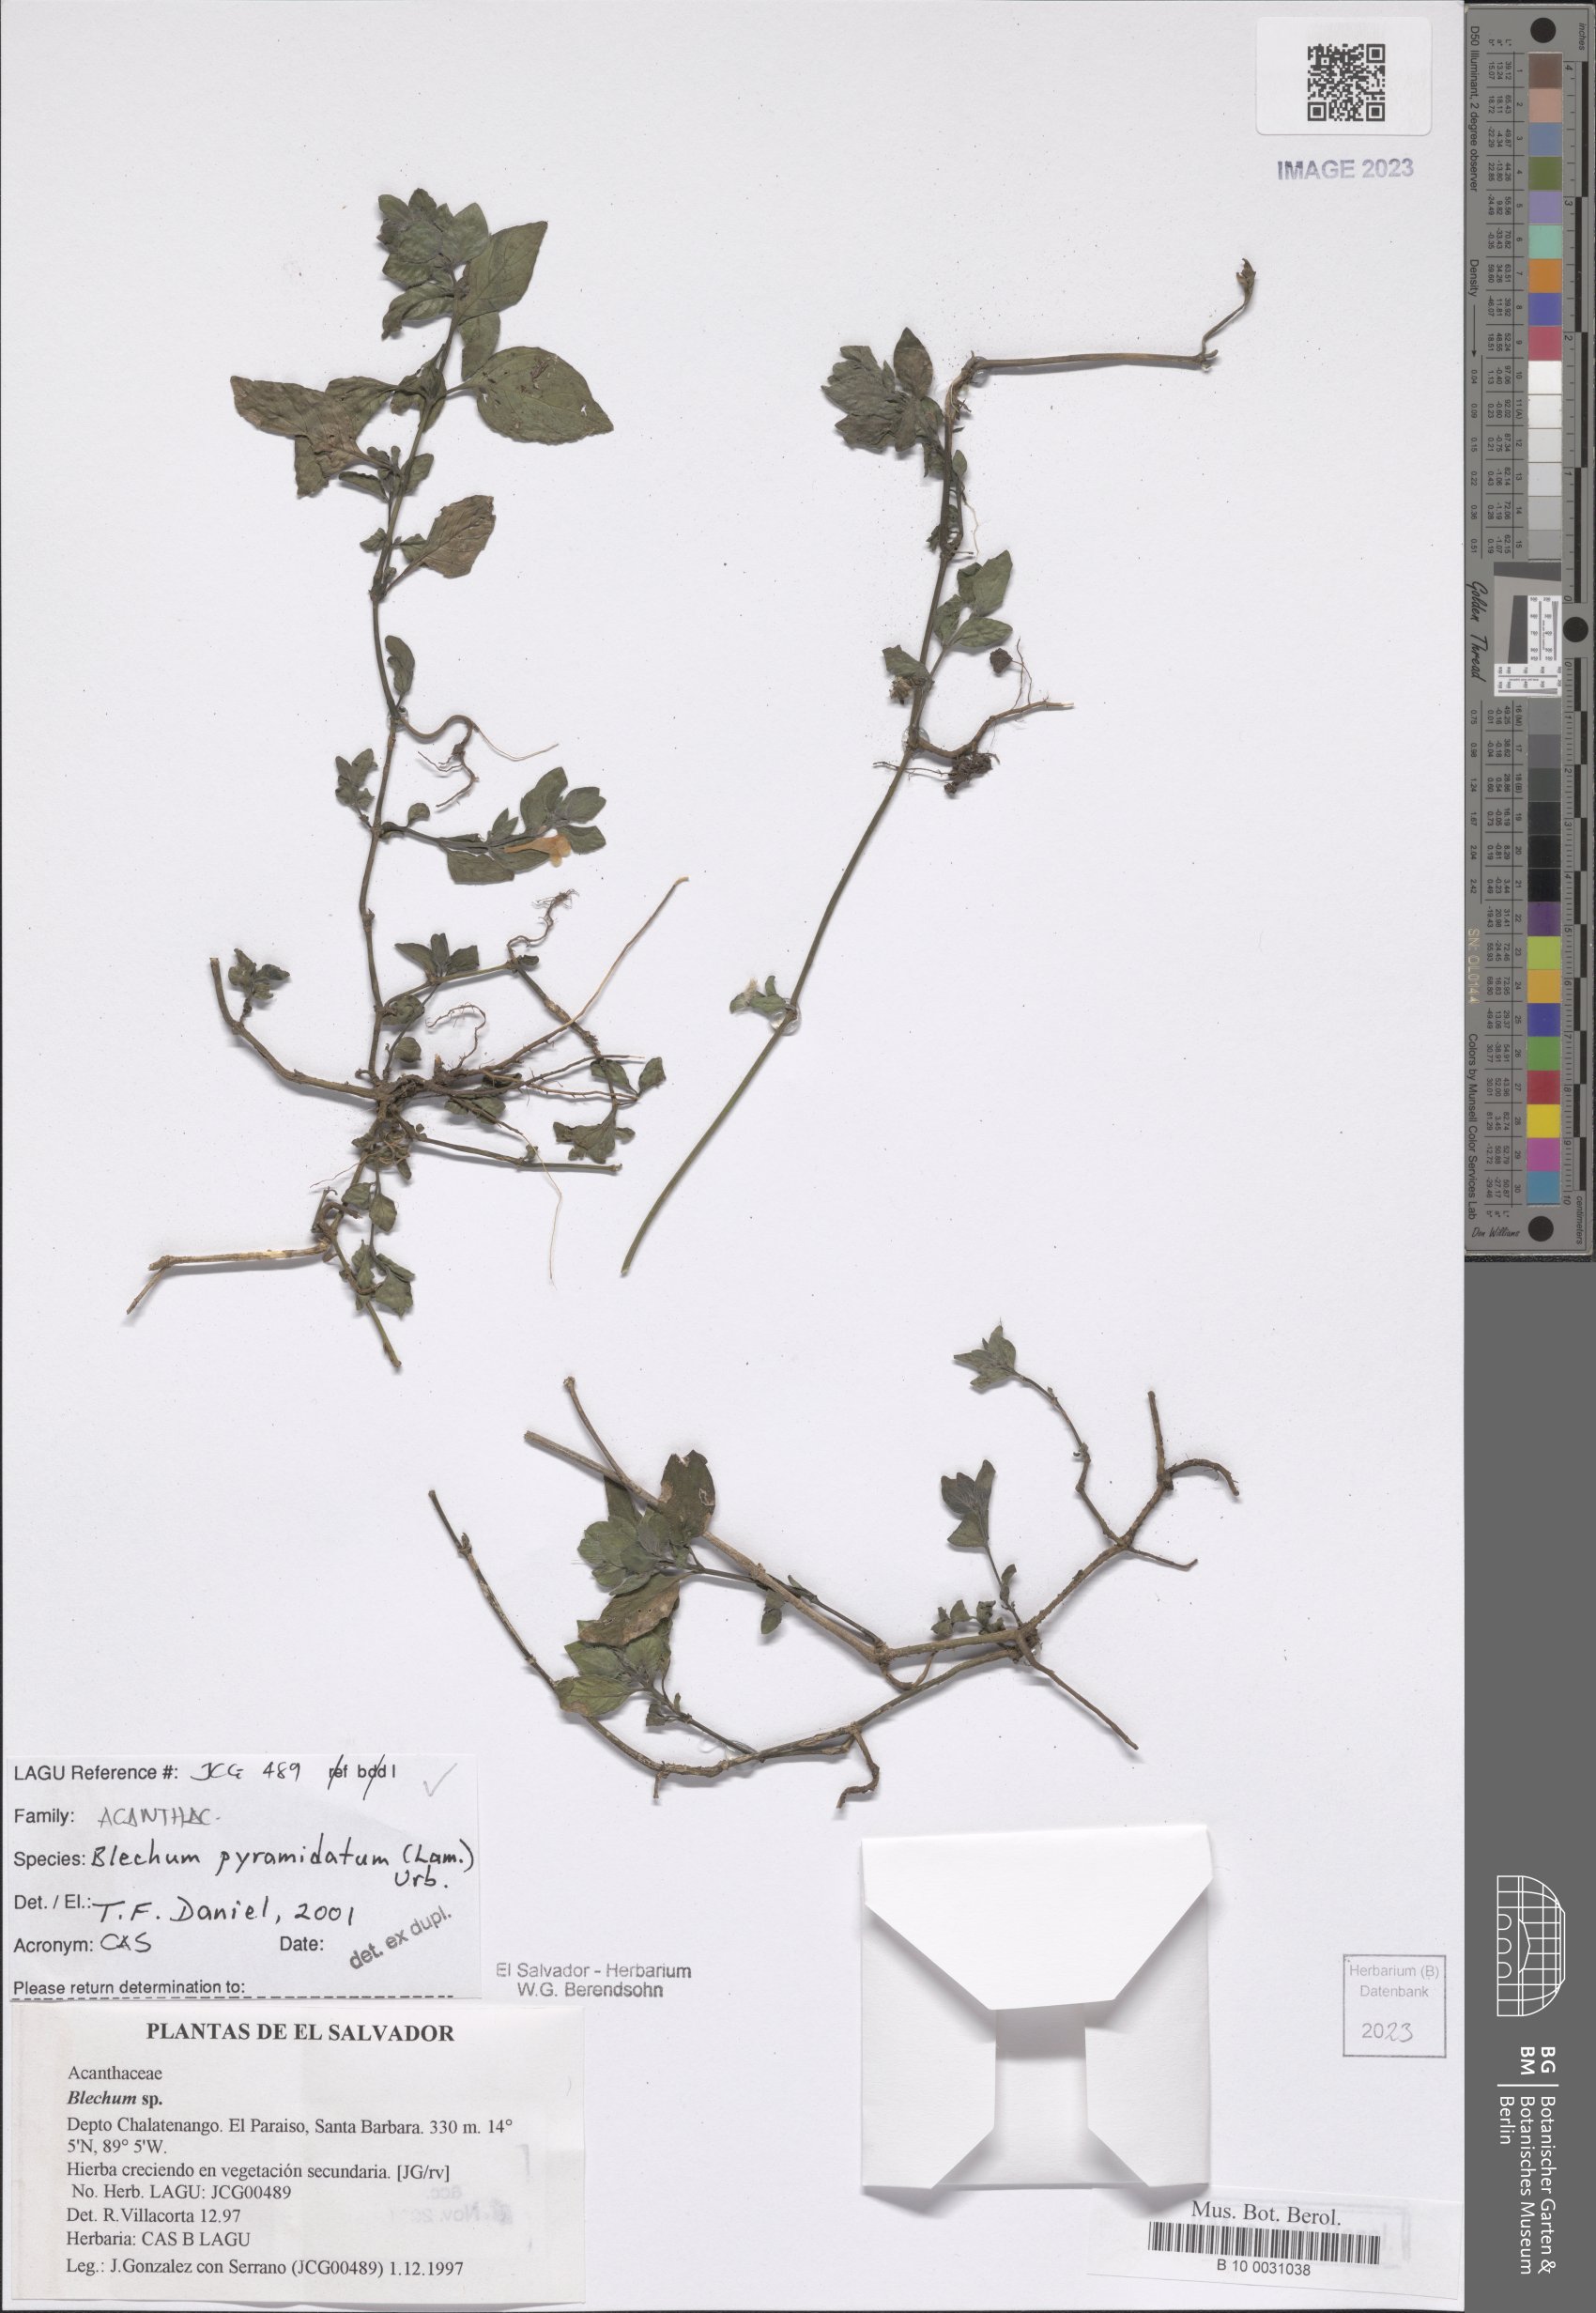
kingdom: Plantae
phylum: Tracheophyta
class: Magnoliopsida
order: Lamiales
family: Acanthaceae
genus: Ruellia
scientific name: Ruellia blechum
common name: Browne's blechum
